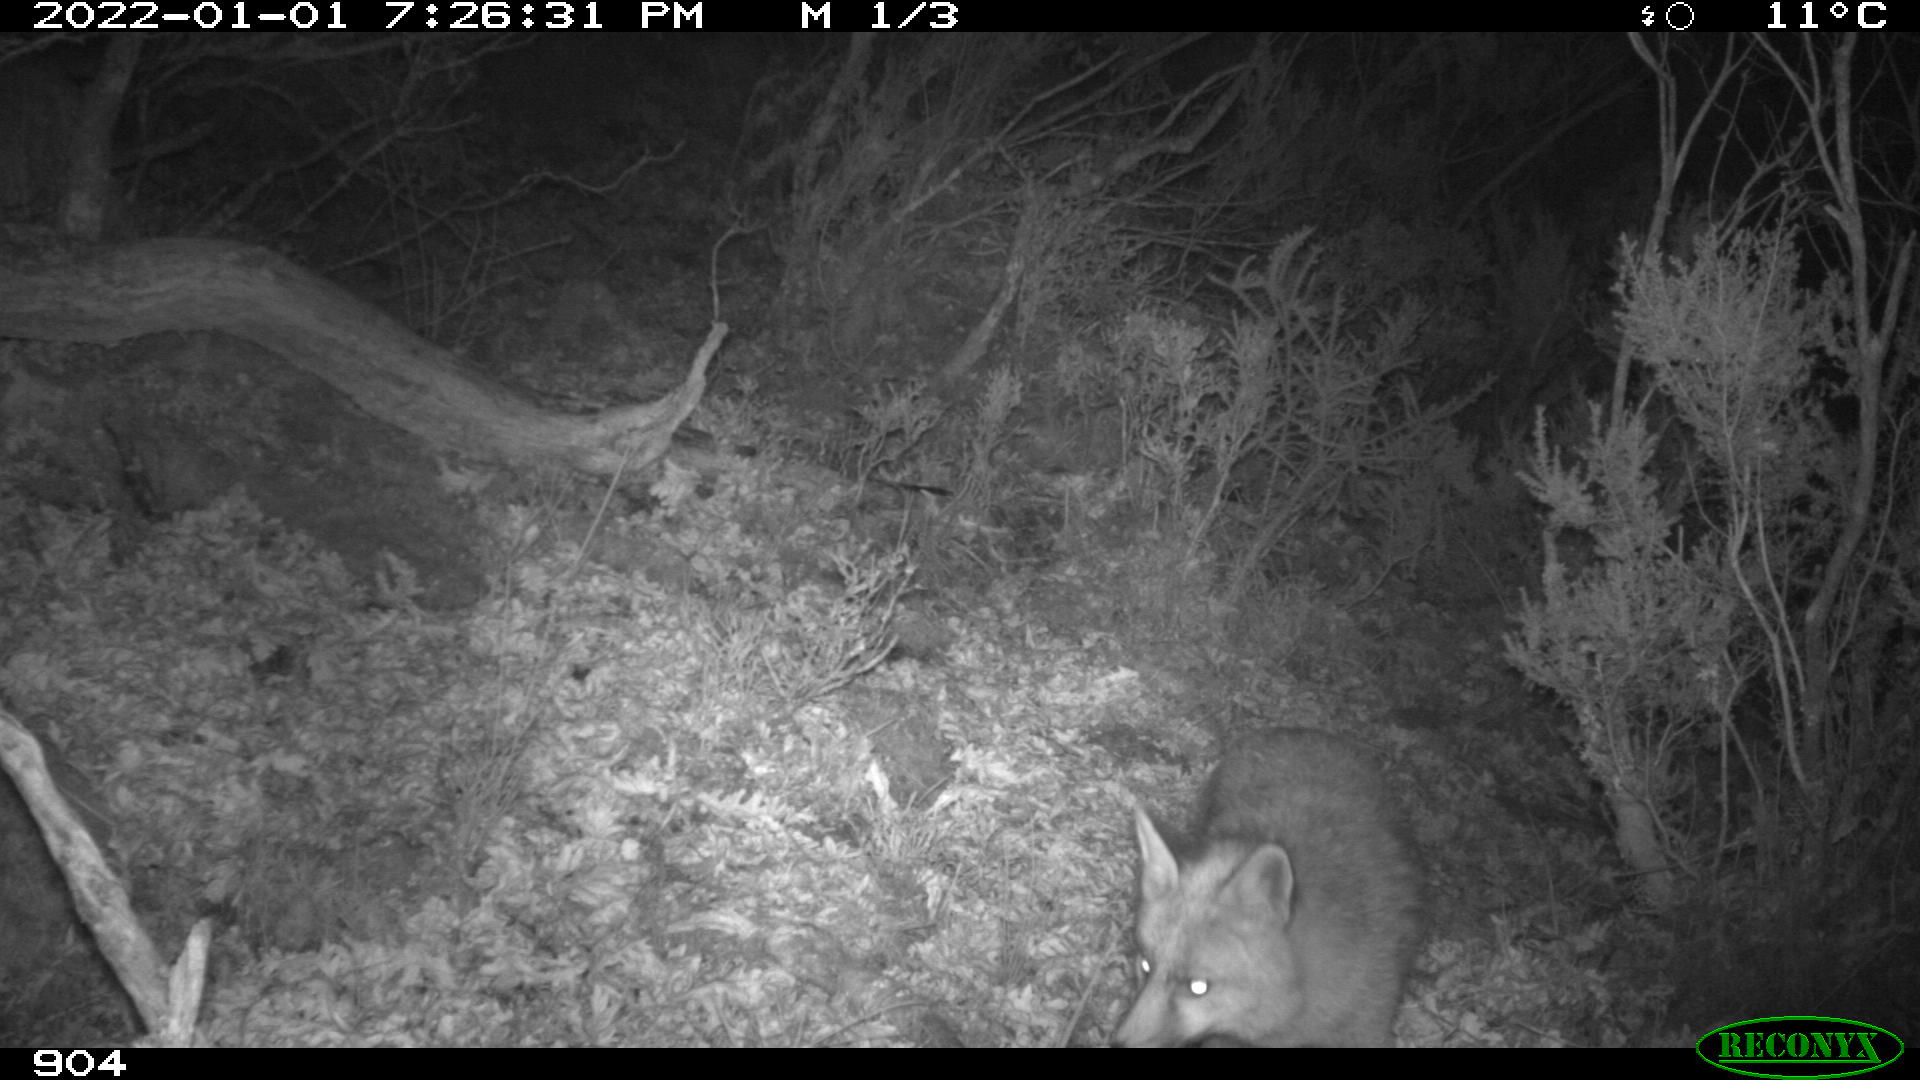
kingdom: Animalia
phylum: Chordata
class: Mammalia
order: Carnivora
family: Canidae
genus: Vulpes
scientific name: Vulpes vulpes
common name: Red fox
